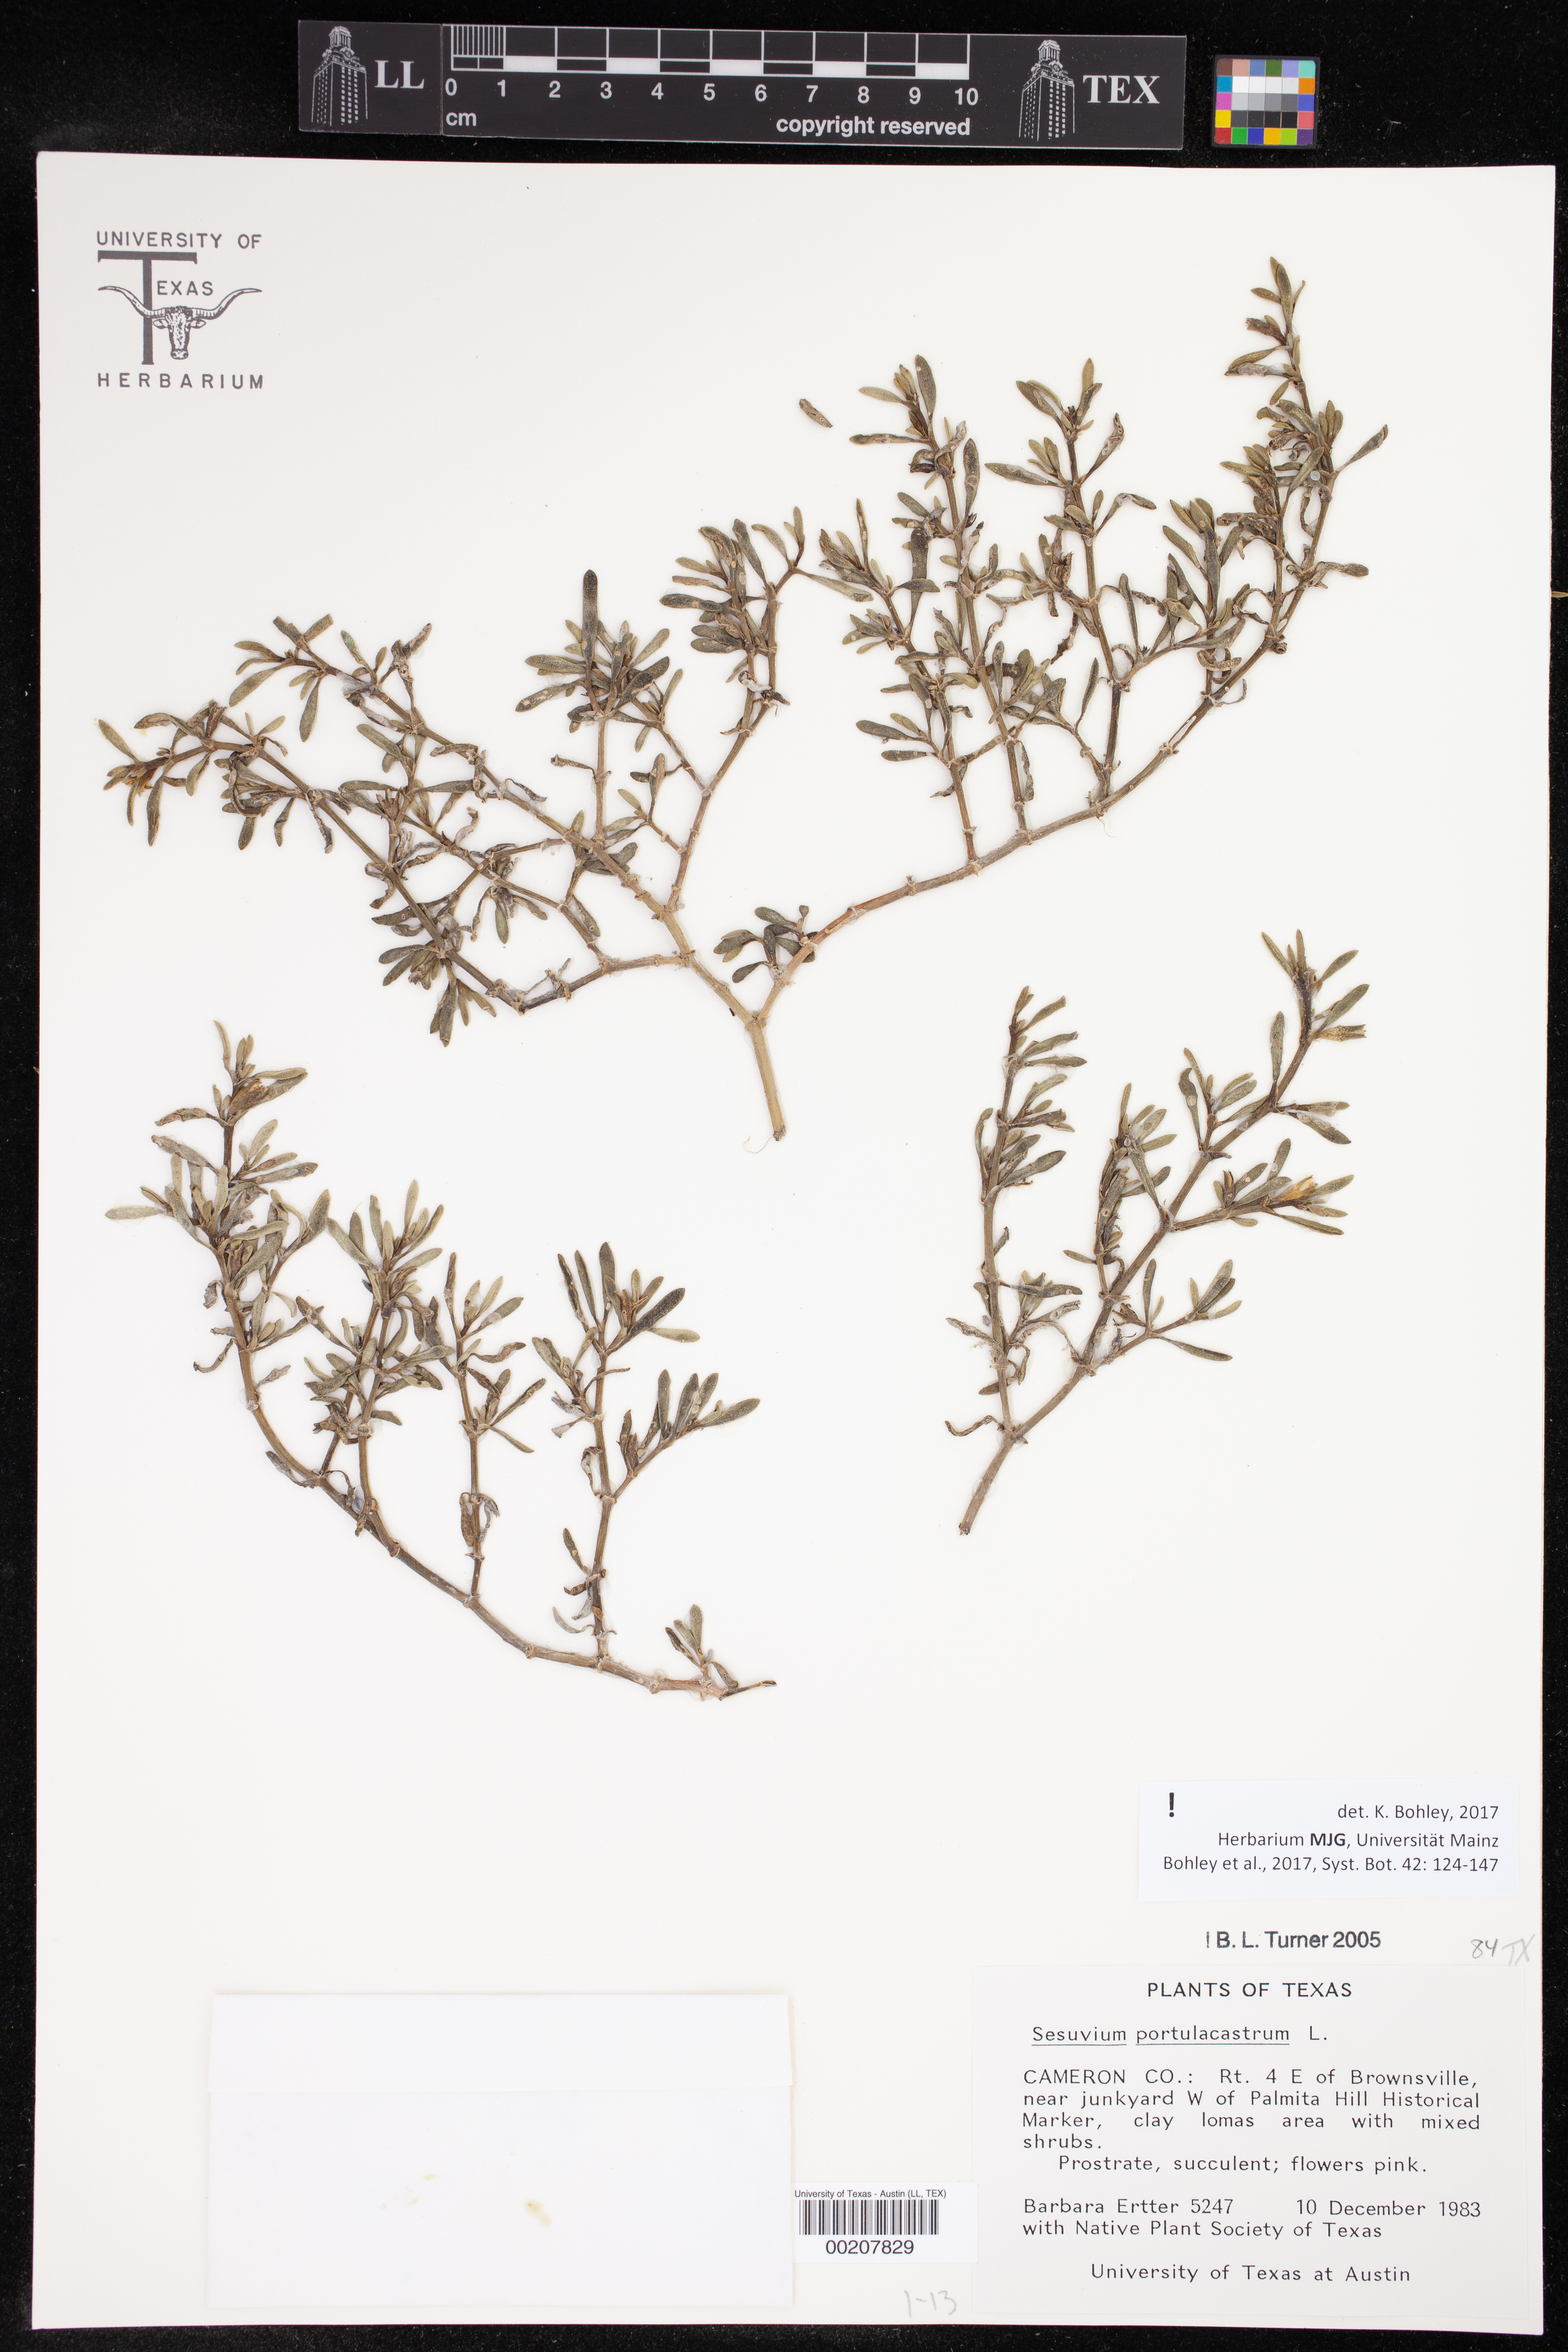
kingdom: Plantae
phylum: Tracheophyta
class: Magnoliopsida
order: Caryophyllales
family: Aizoaceae
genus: Sesuvium
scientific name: Sesuvium portulacastrum
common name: Sea-purslane
